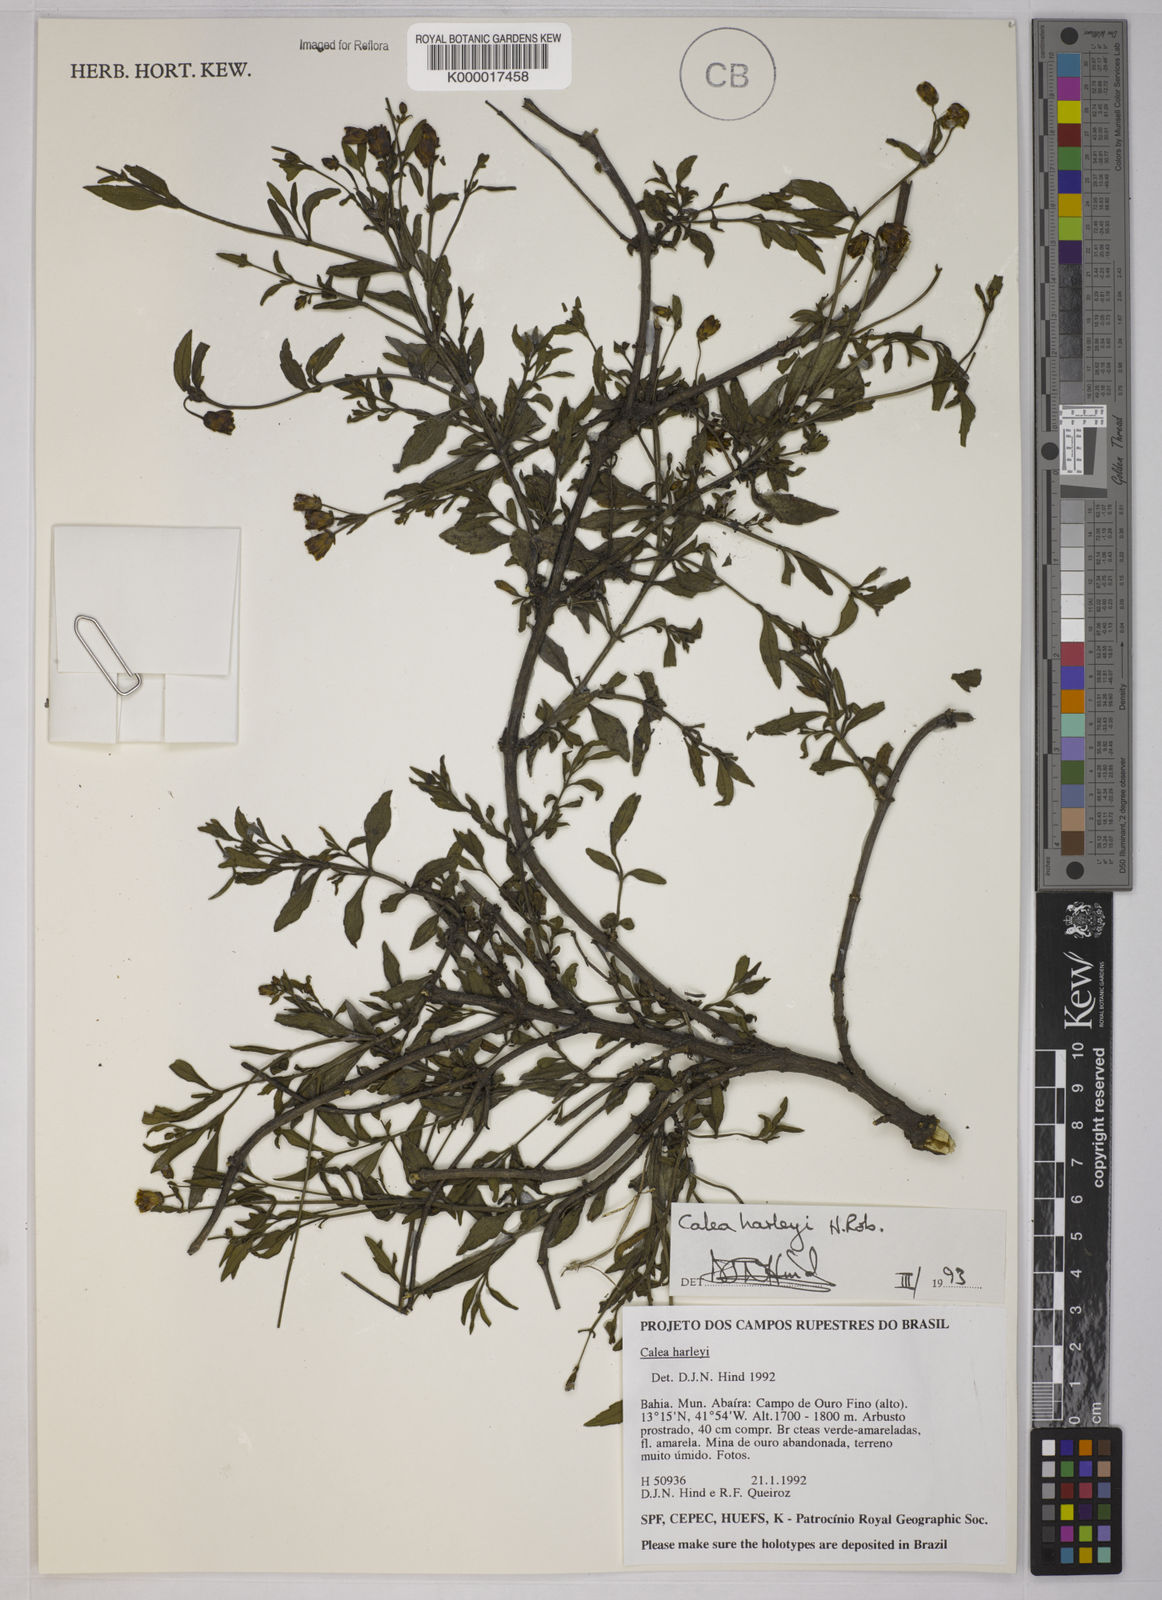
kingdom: Plantae
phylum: Tracheophyta
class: Magnoliopsida
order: Asterales
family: Asteraceae
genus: Calea
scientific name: Calea harleyi
